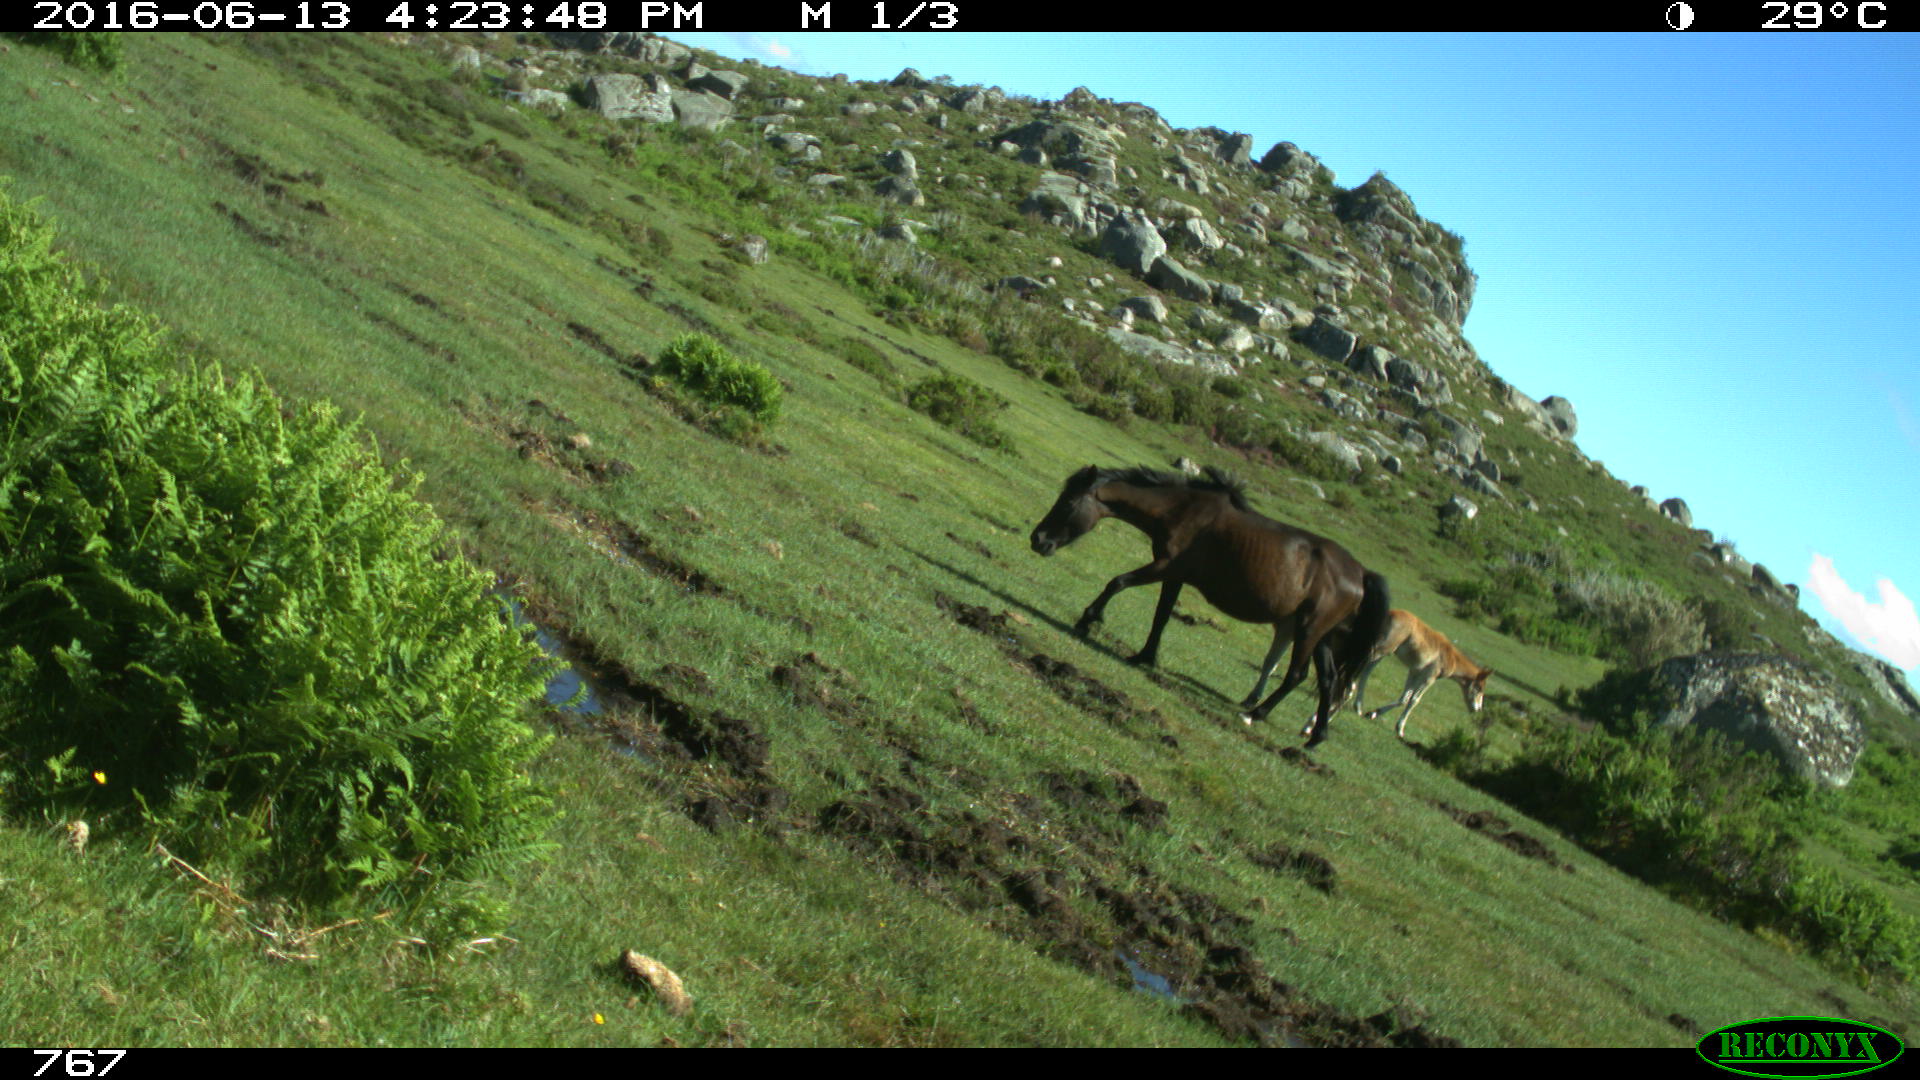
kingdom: Animalia
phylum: Chordata
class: Mammalia
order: Perissodactyla
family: Equidae
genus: Equus
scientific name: Equus caballus
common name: Horse
